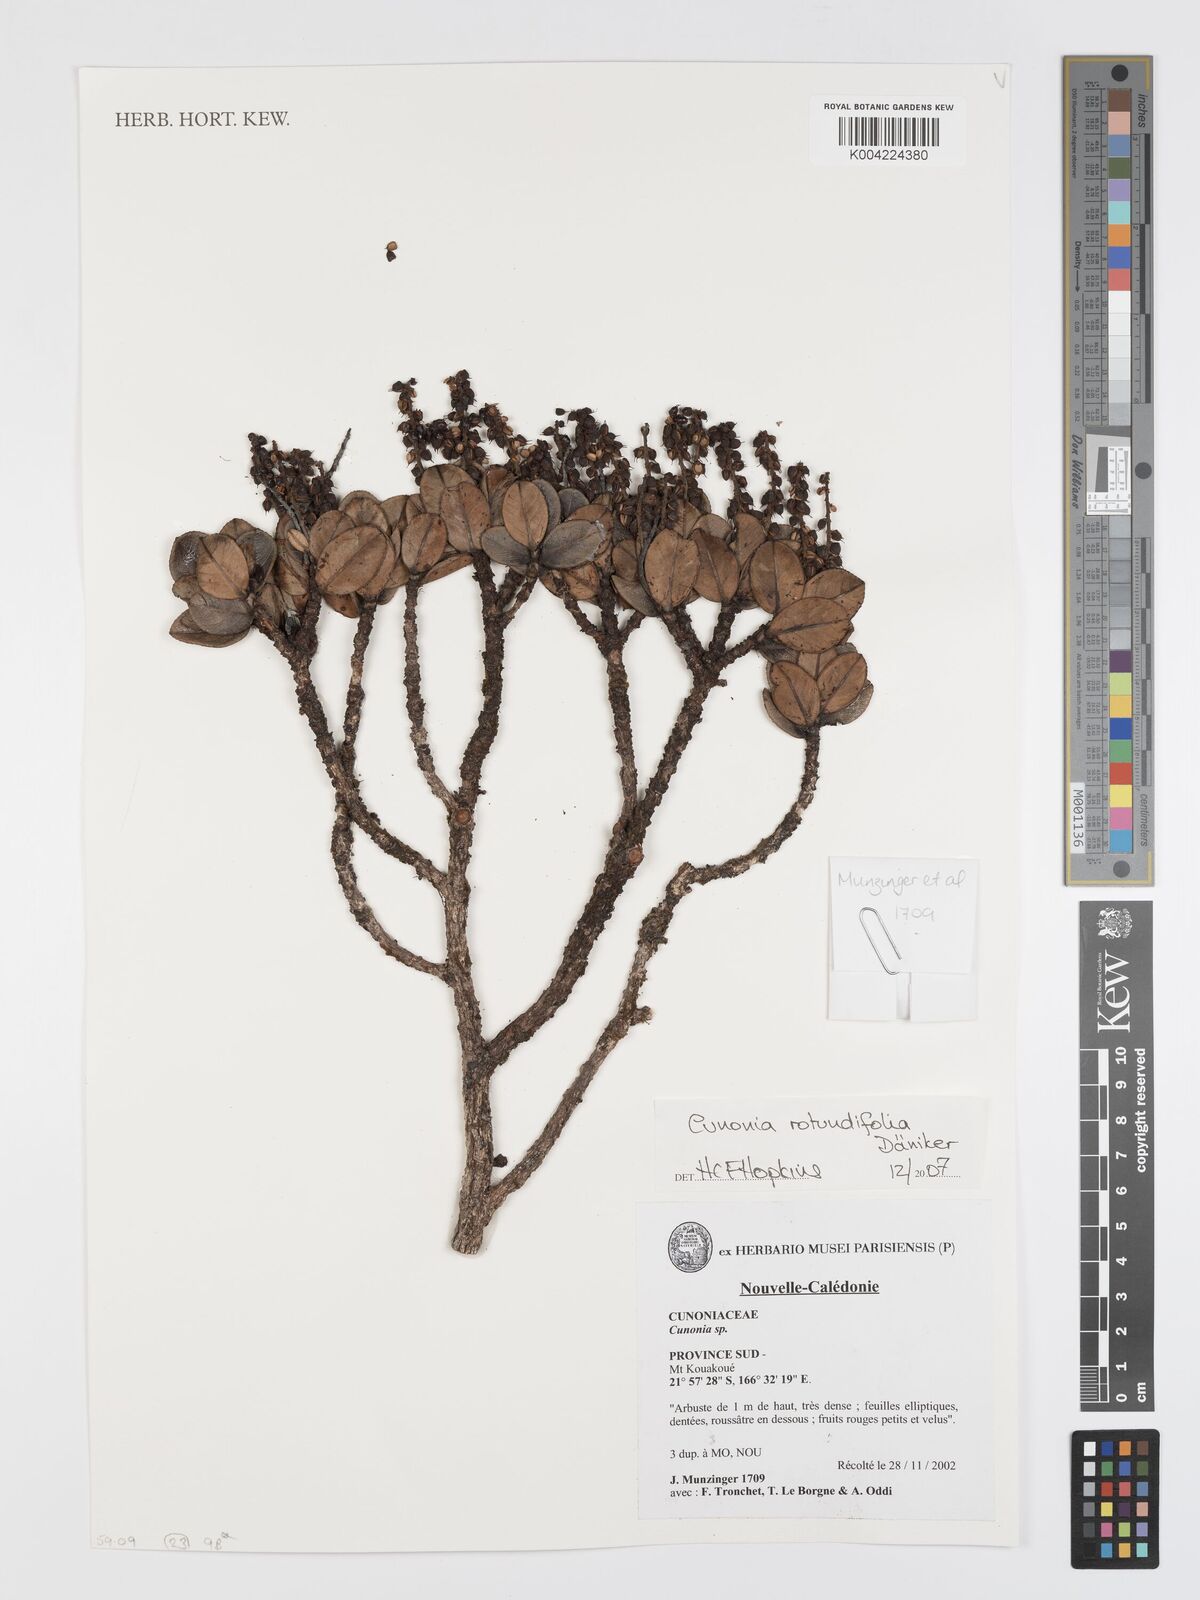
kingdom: Plantae
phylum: Tracheophyta
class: Magnoliopsida
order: Oxalidales
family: Cunoniaceae
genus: Cunonia
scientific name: Cunonia rotundifolia
